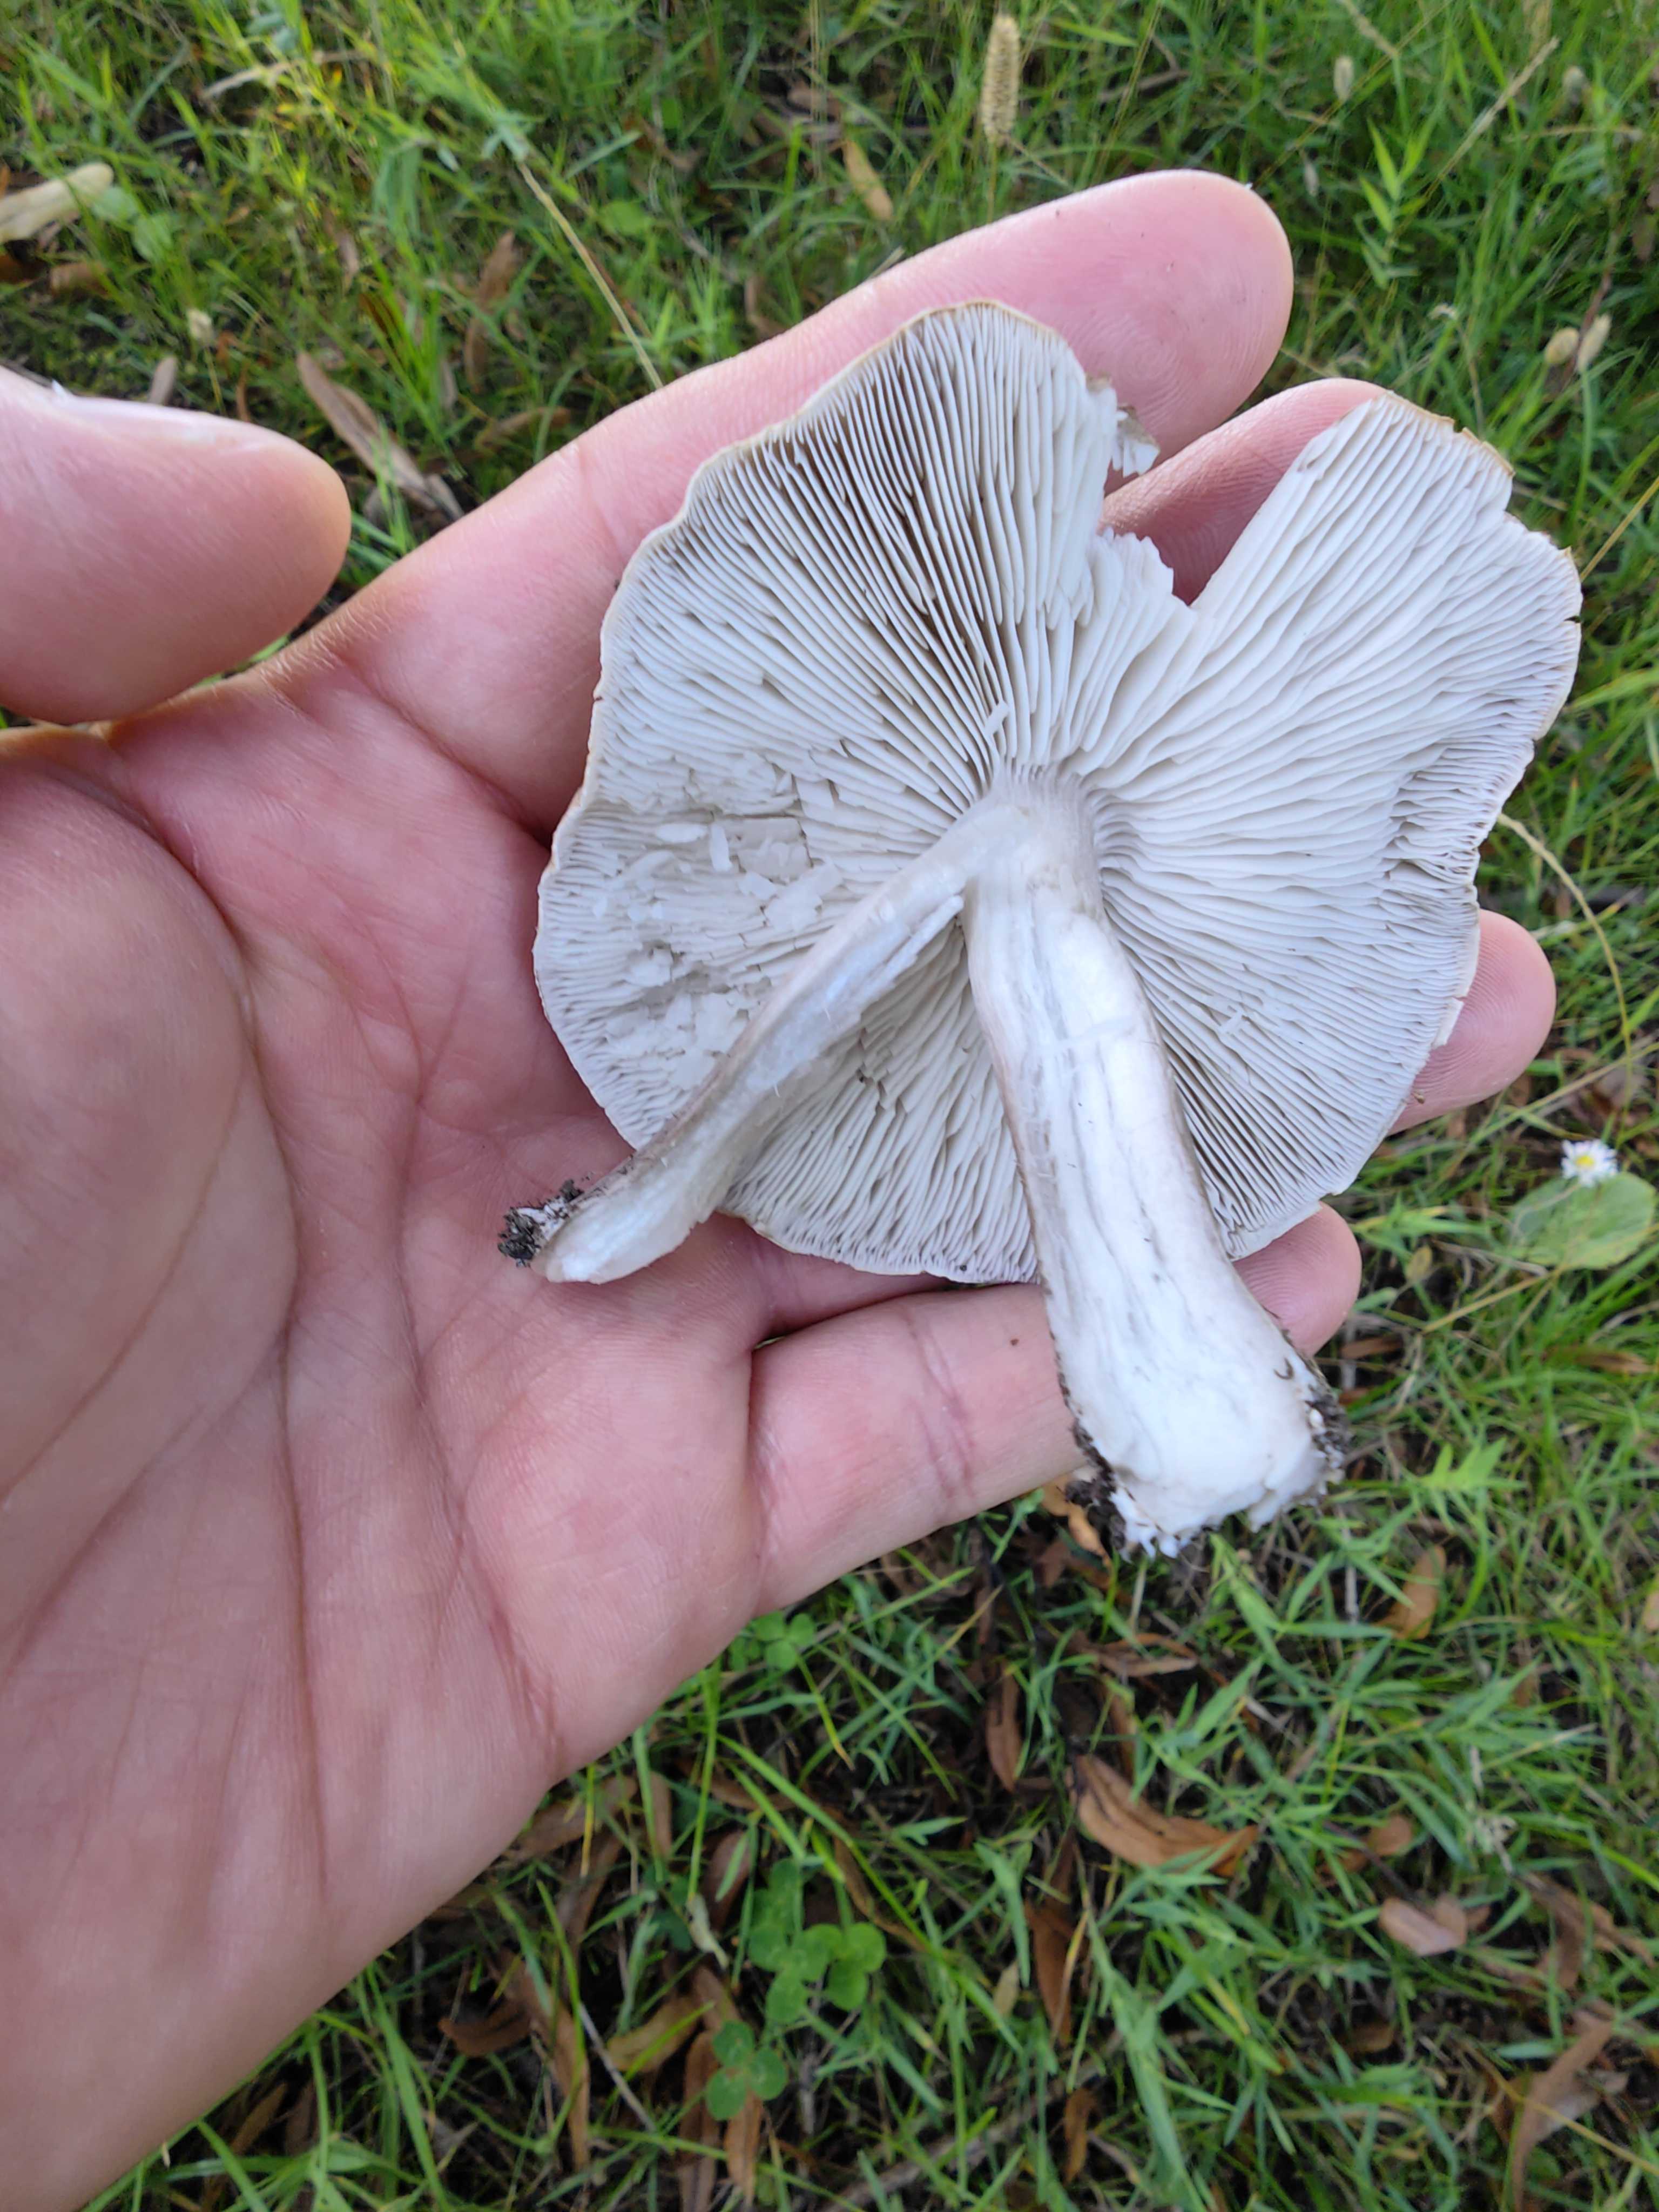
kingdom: Fungi
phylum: Basidiomycota
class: Agaricomycetes
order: Agaricales
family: Tricholomataceae
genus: Tricholoma
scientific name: Tricholoma scalpturatum
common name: gulplettet ridderhat
